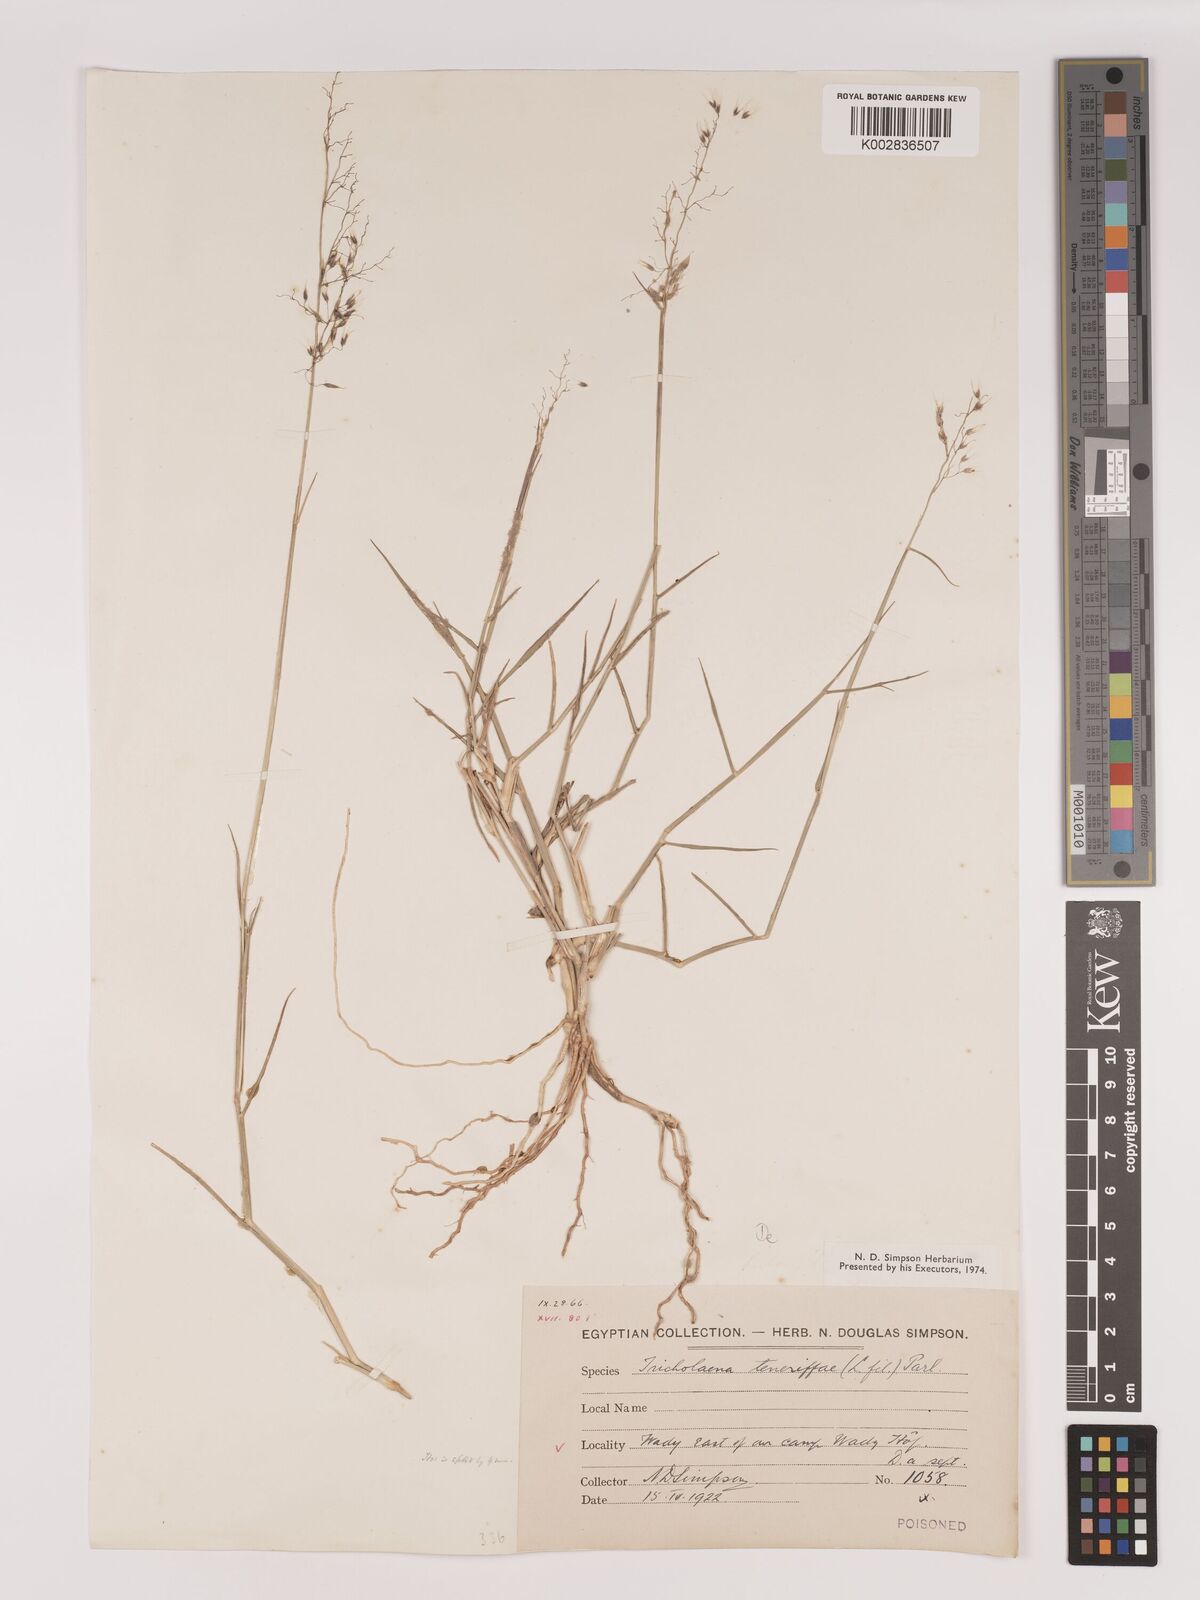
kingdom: Plantae
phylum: Tracheophyta
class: Liliopsida
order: Poales
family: Poaceae
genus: Tricholaena
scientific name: Tricholaena teneriffae
